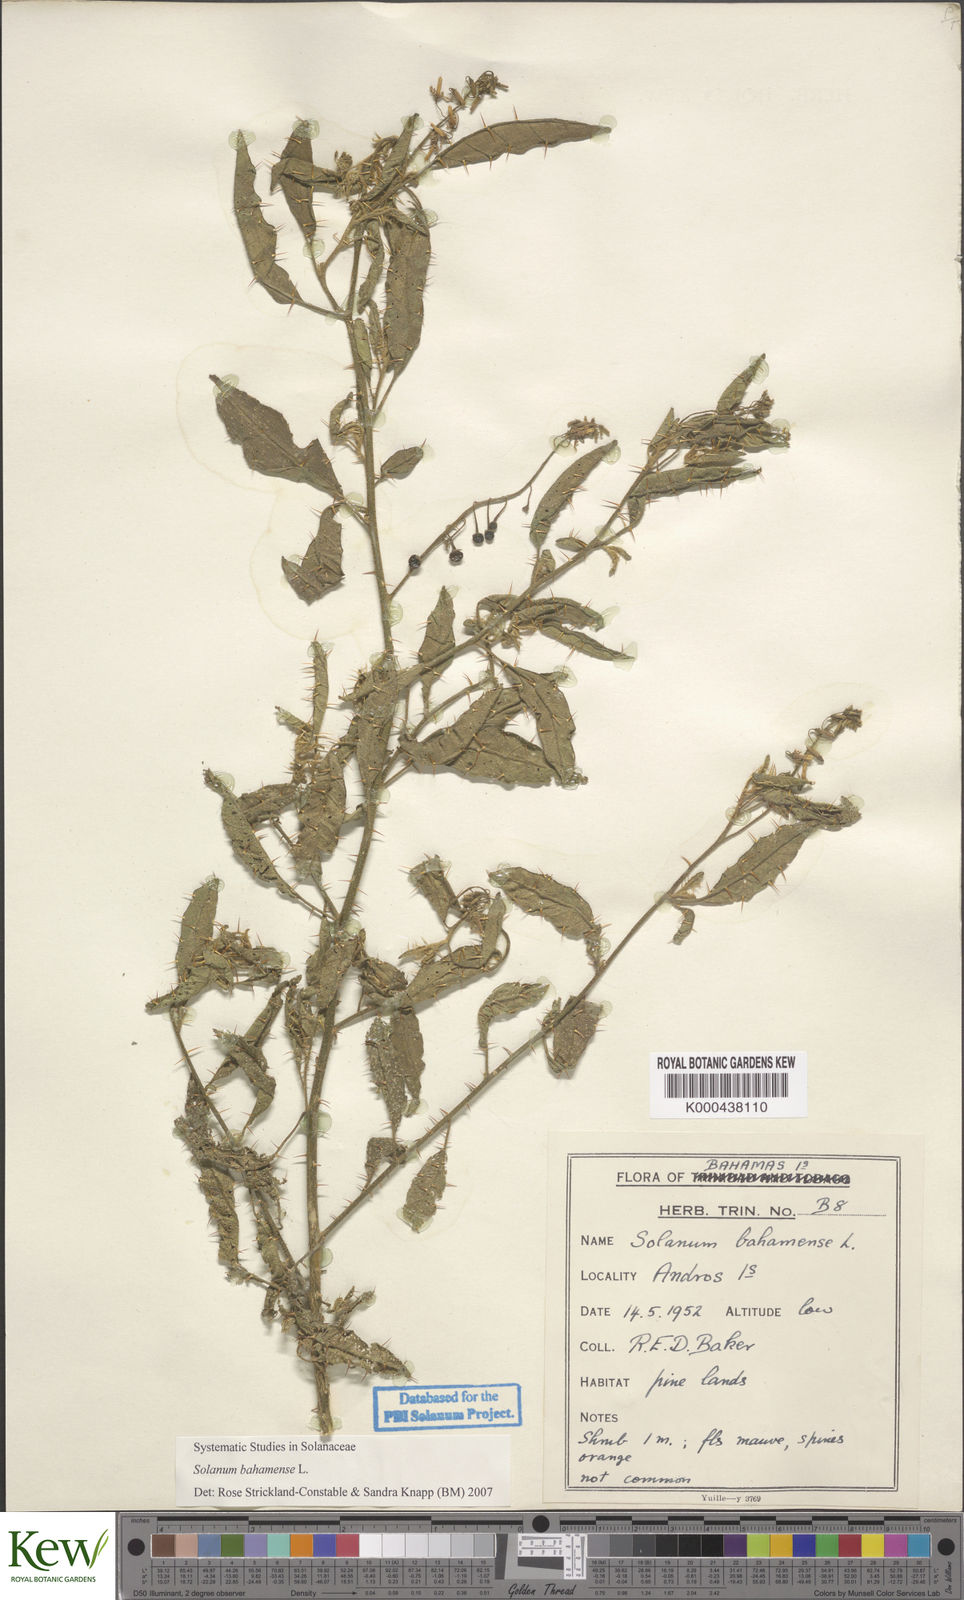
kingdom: Plantae
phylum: Tracheophyta
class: Magnoliopsida
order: Solanales
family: Solanaceae
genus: Solanum
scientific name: Solanum bahamense
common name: Canker-berry
